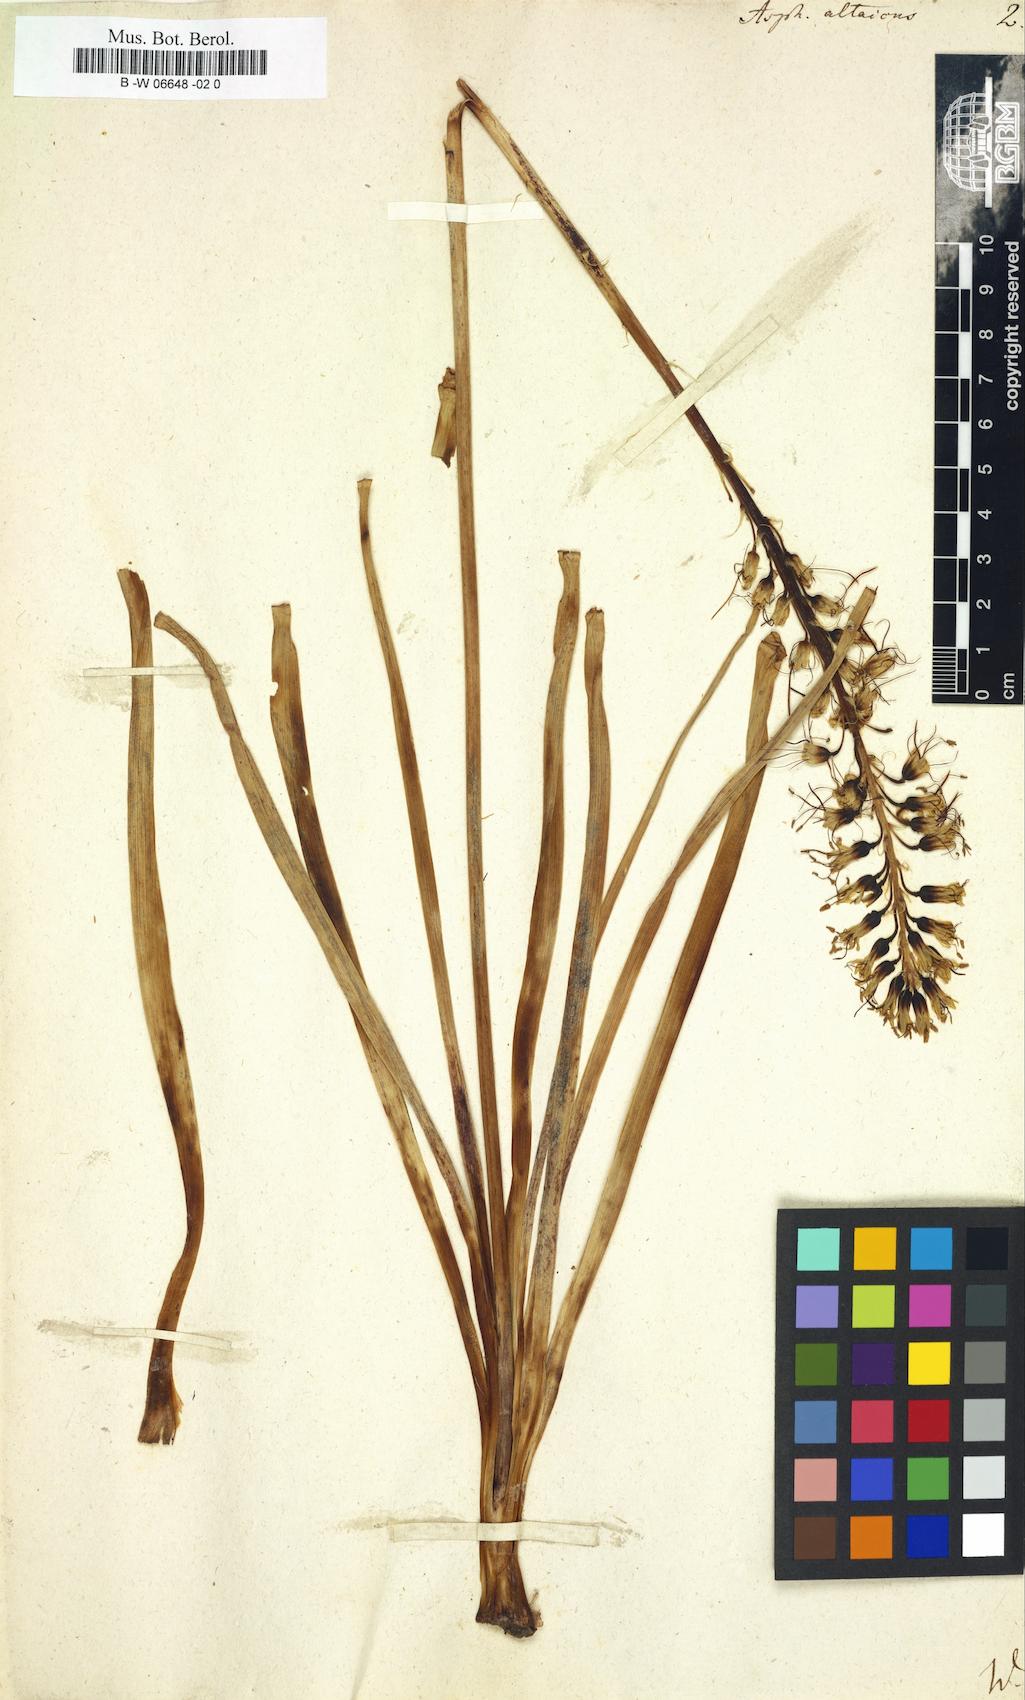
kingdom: Plantae
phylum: Tracheophyta
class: Liliopsida
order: Asparagales
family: Asphodelaceae
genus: Eremurus
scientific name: Eremurus altaicus
